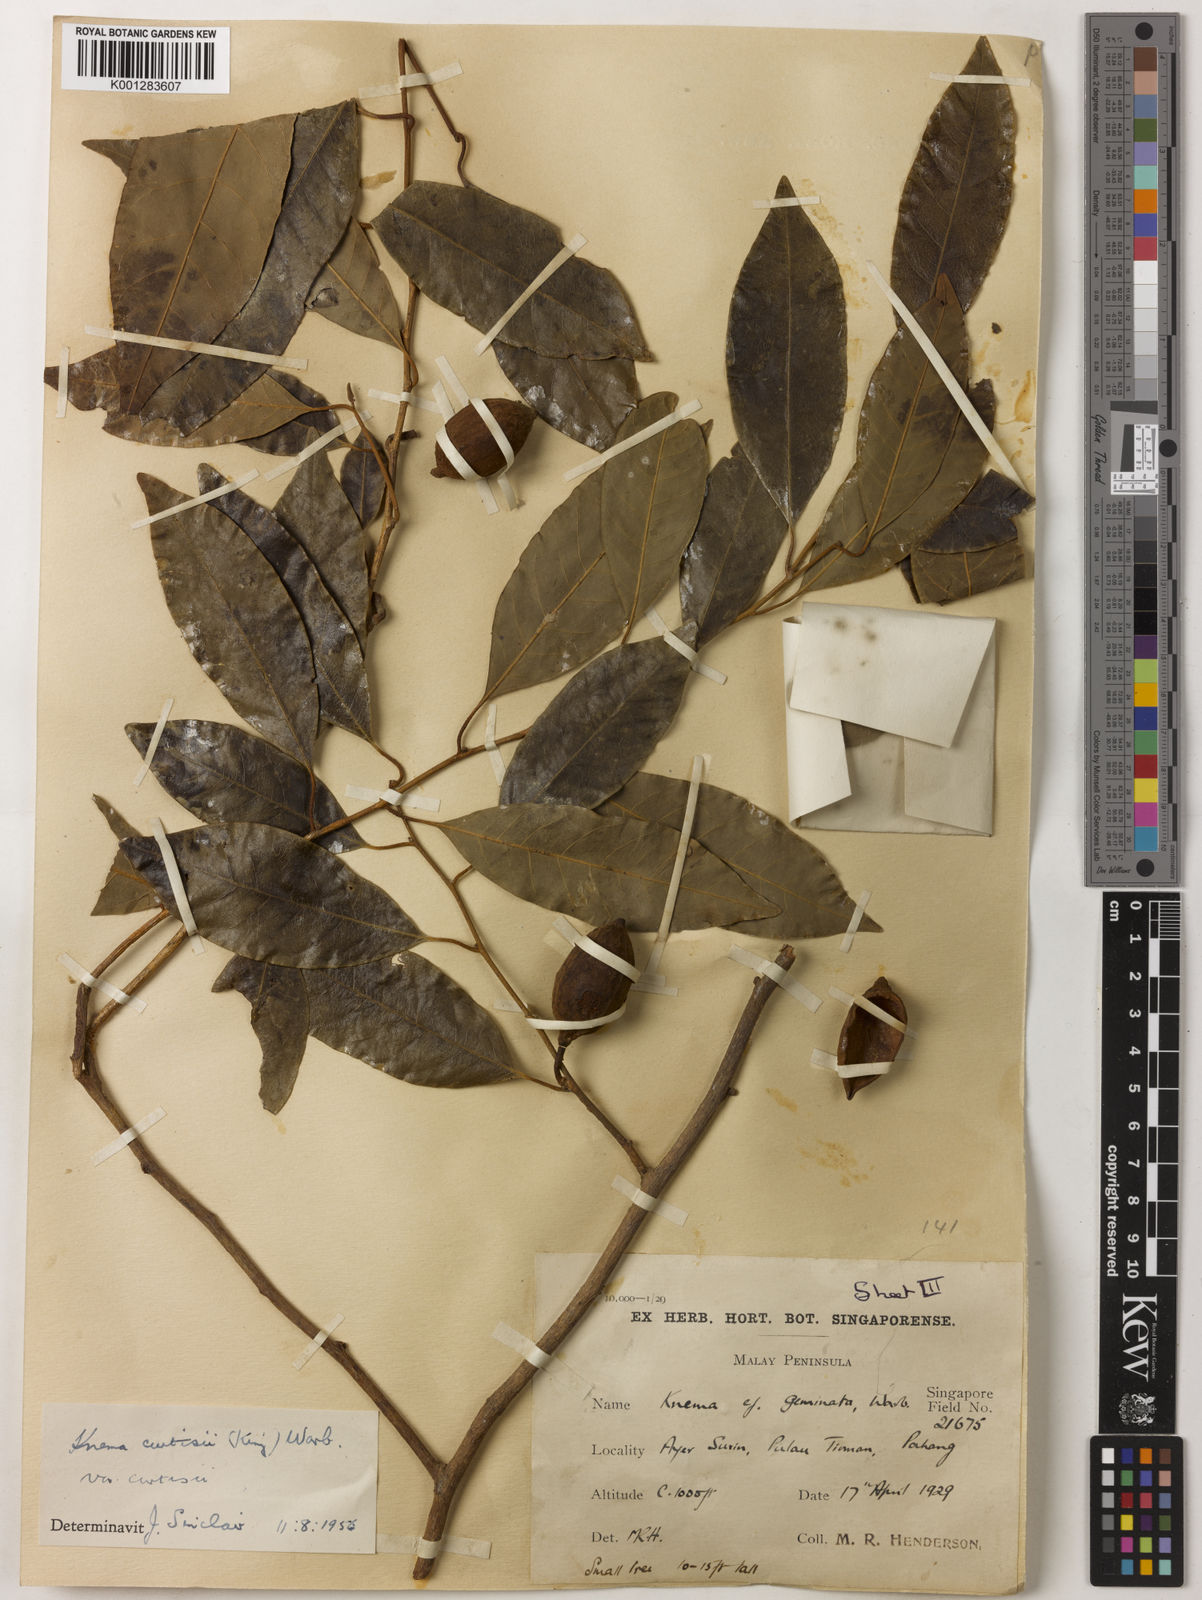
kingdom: Plantae
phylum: Tracheophyta
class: Magnoliopsida
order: Magnoliales
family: Myristicaceae
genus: Knema
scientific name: Knema curtisii
